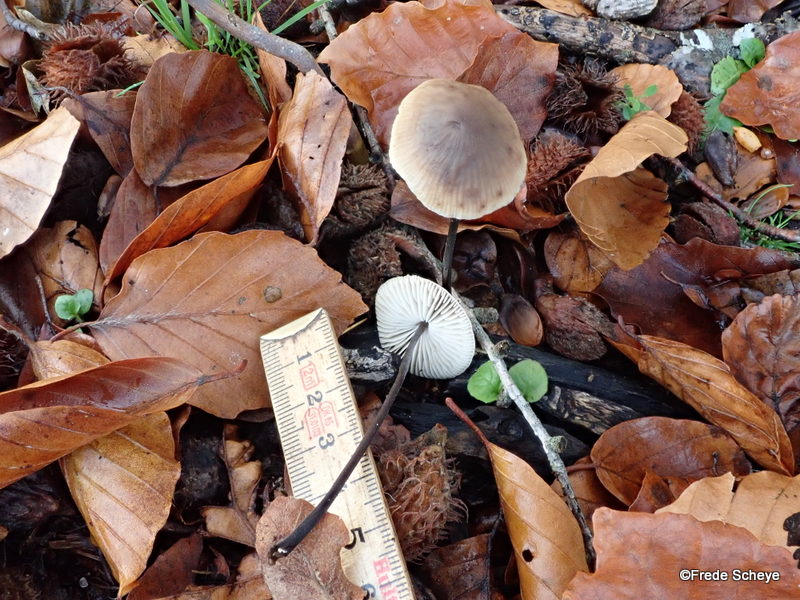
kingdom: Fungi
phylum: Basidiomycota
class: Agaricomycetes
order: Agaricales
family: Omphalotaceae
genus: Mycetinis
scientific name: Mycetinis alliaceus
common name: stor løghat
